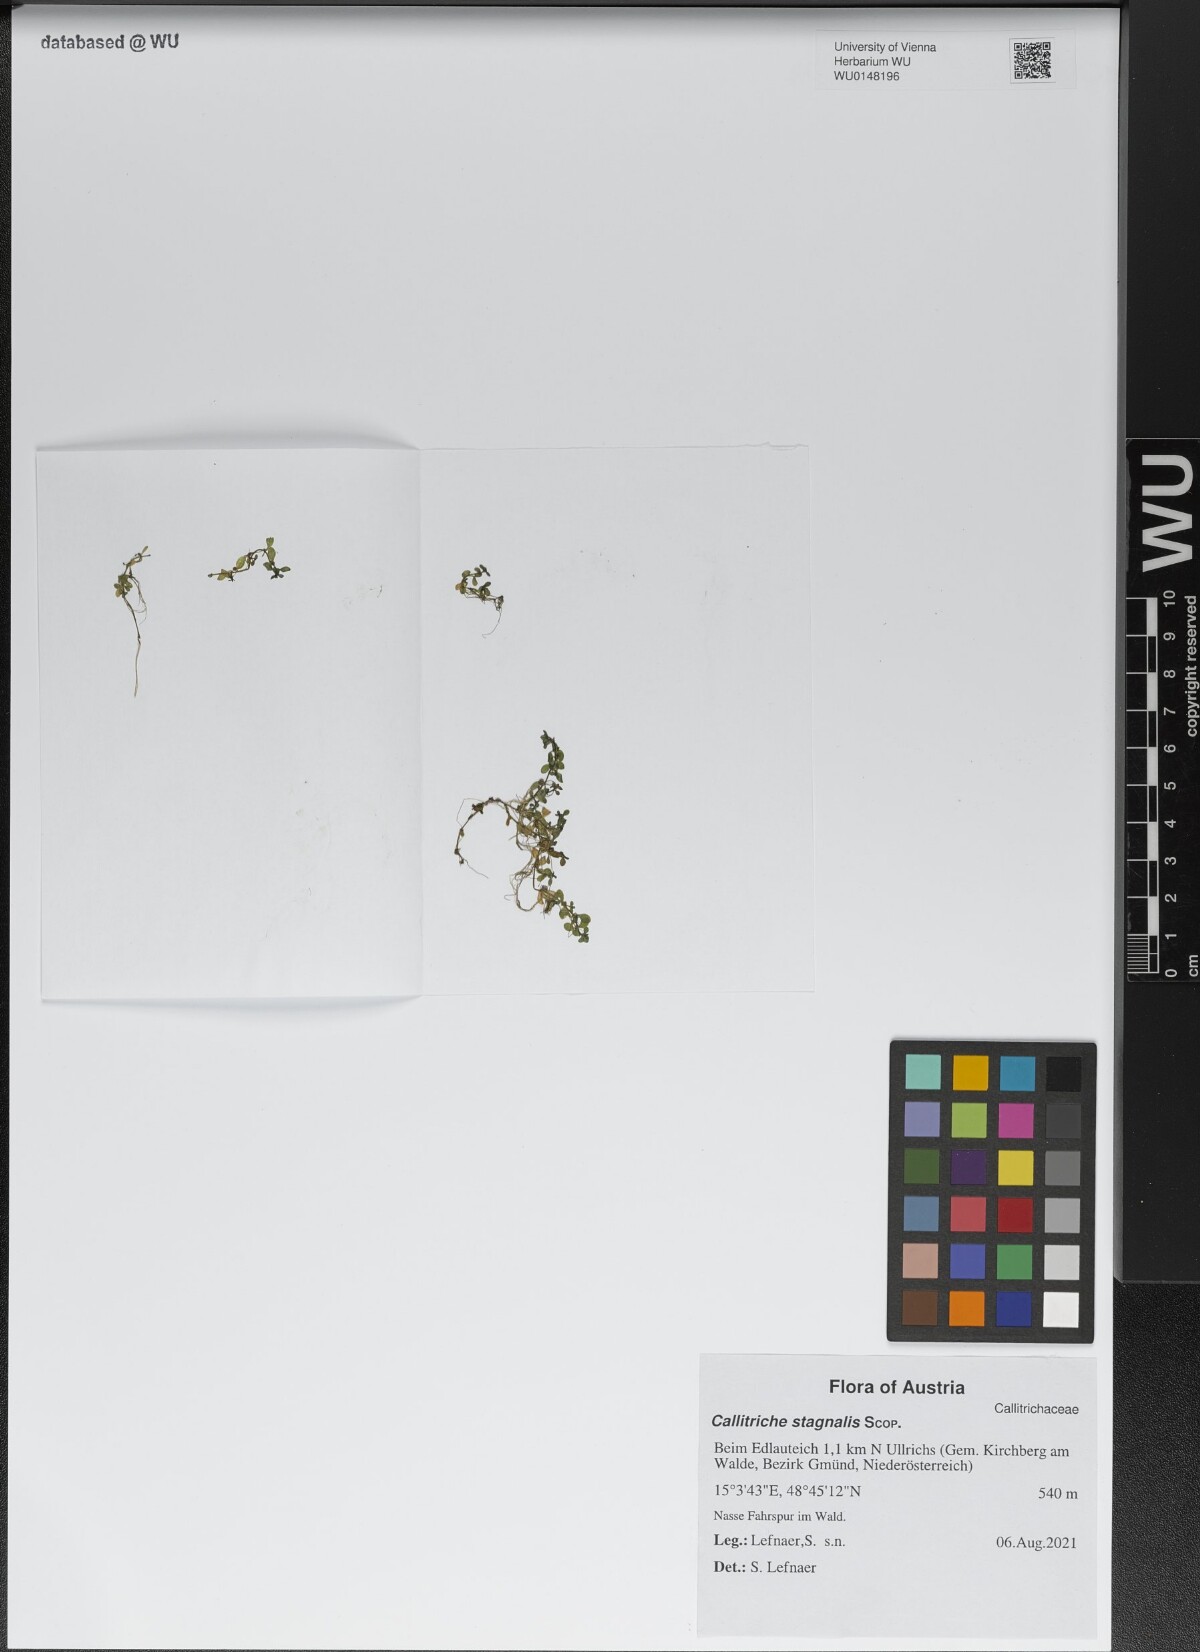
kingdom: Plantae
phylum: Tracheophyta
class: Magnoliopsida
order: Lamiales
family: Plantaginaceae
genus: Callitriche
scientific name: Callitriche stagnalis
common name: Common water-starwort
